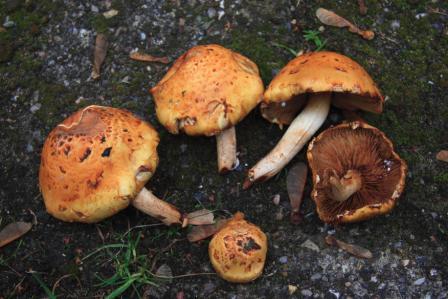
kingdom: Fungi
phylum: Basidiomycota
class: Agaricomycetes
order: Agaricales
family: Strophariaceae
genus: Pholiota
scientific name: Pholiota limonella
